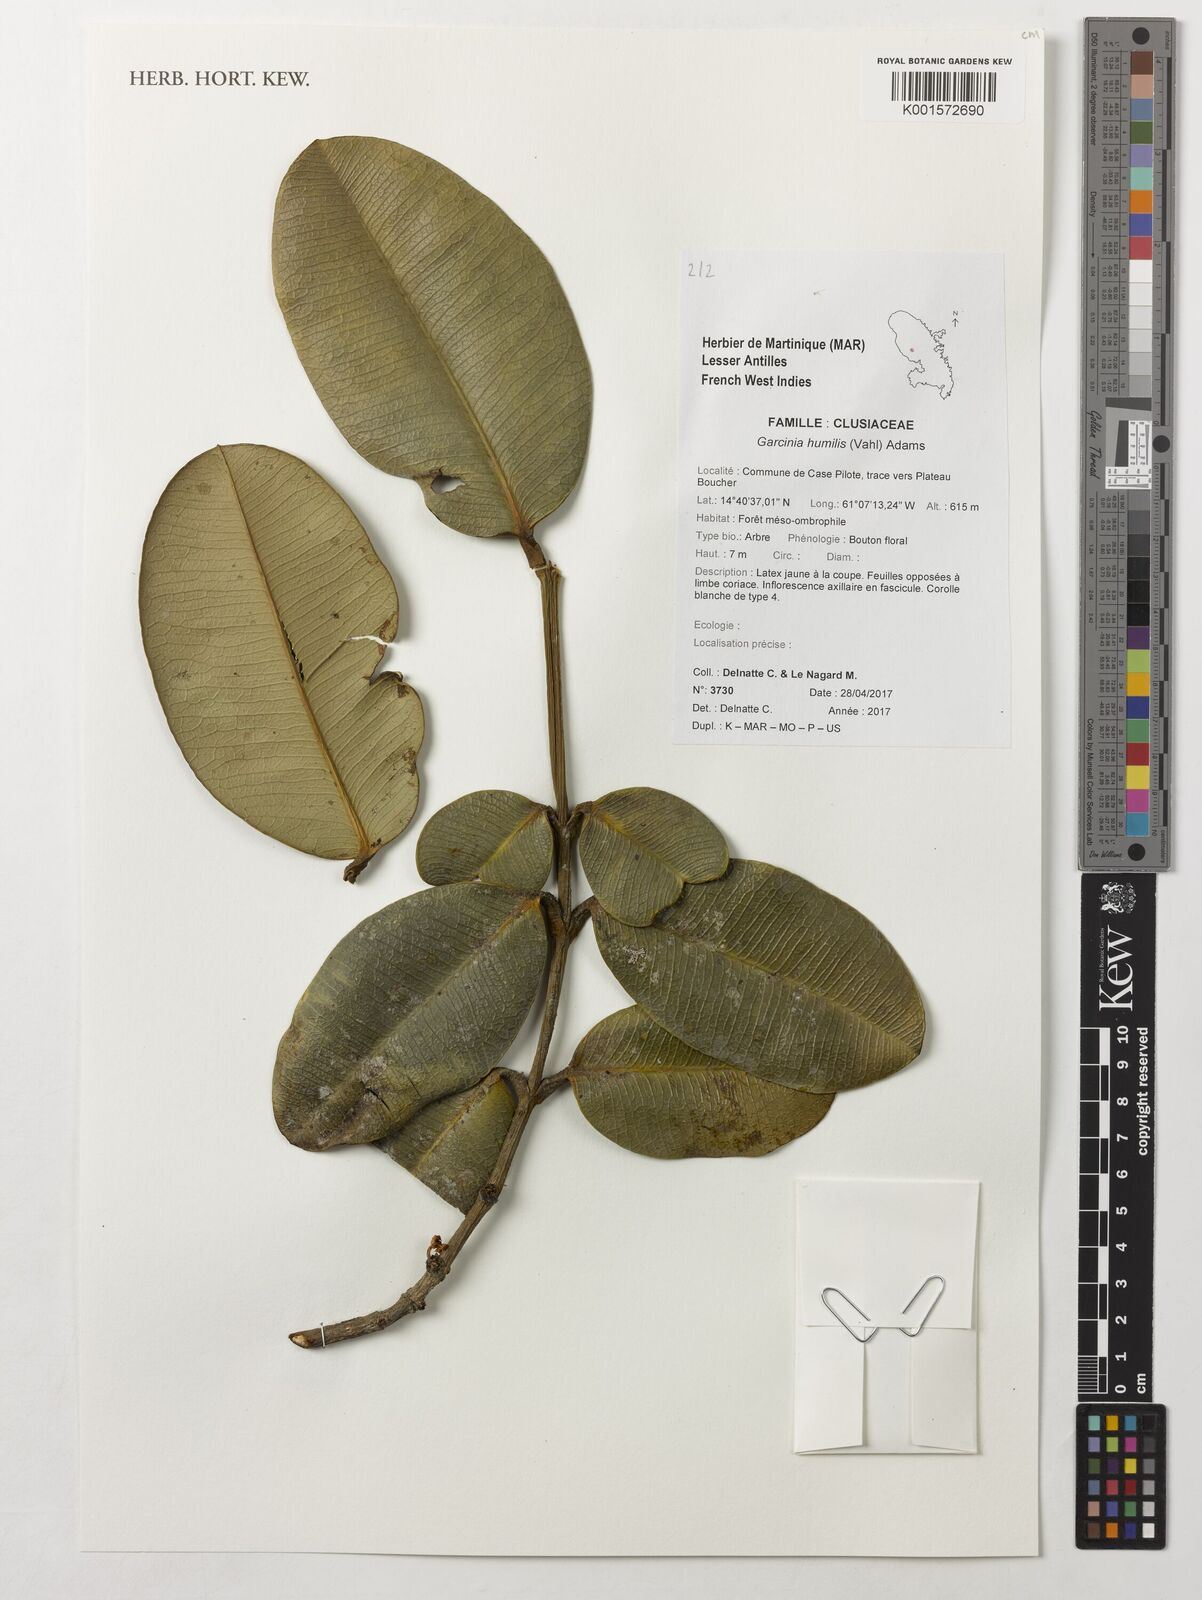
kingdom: Plantae
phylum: Tracheophyta
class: Magnoliopsida
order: Malpighiales
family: Clusiaceae
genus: Garcinia
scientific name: Garcinia humilis
